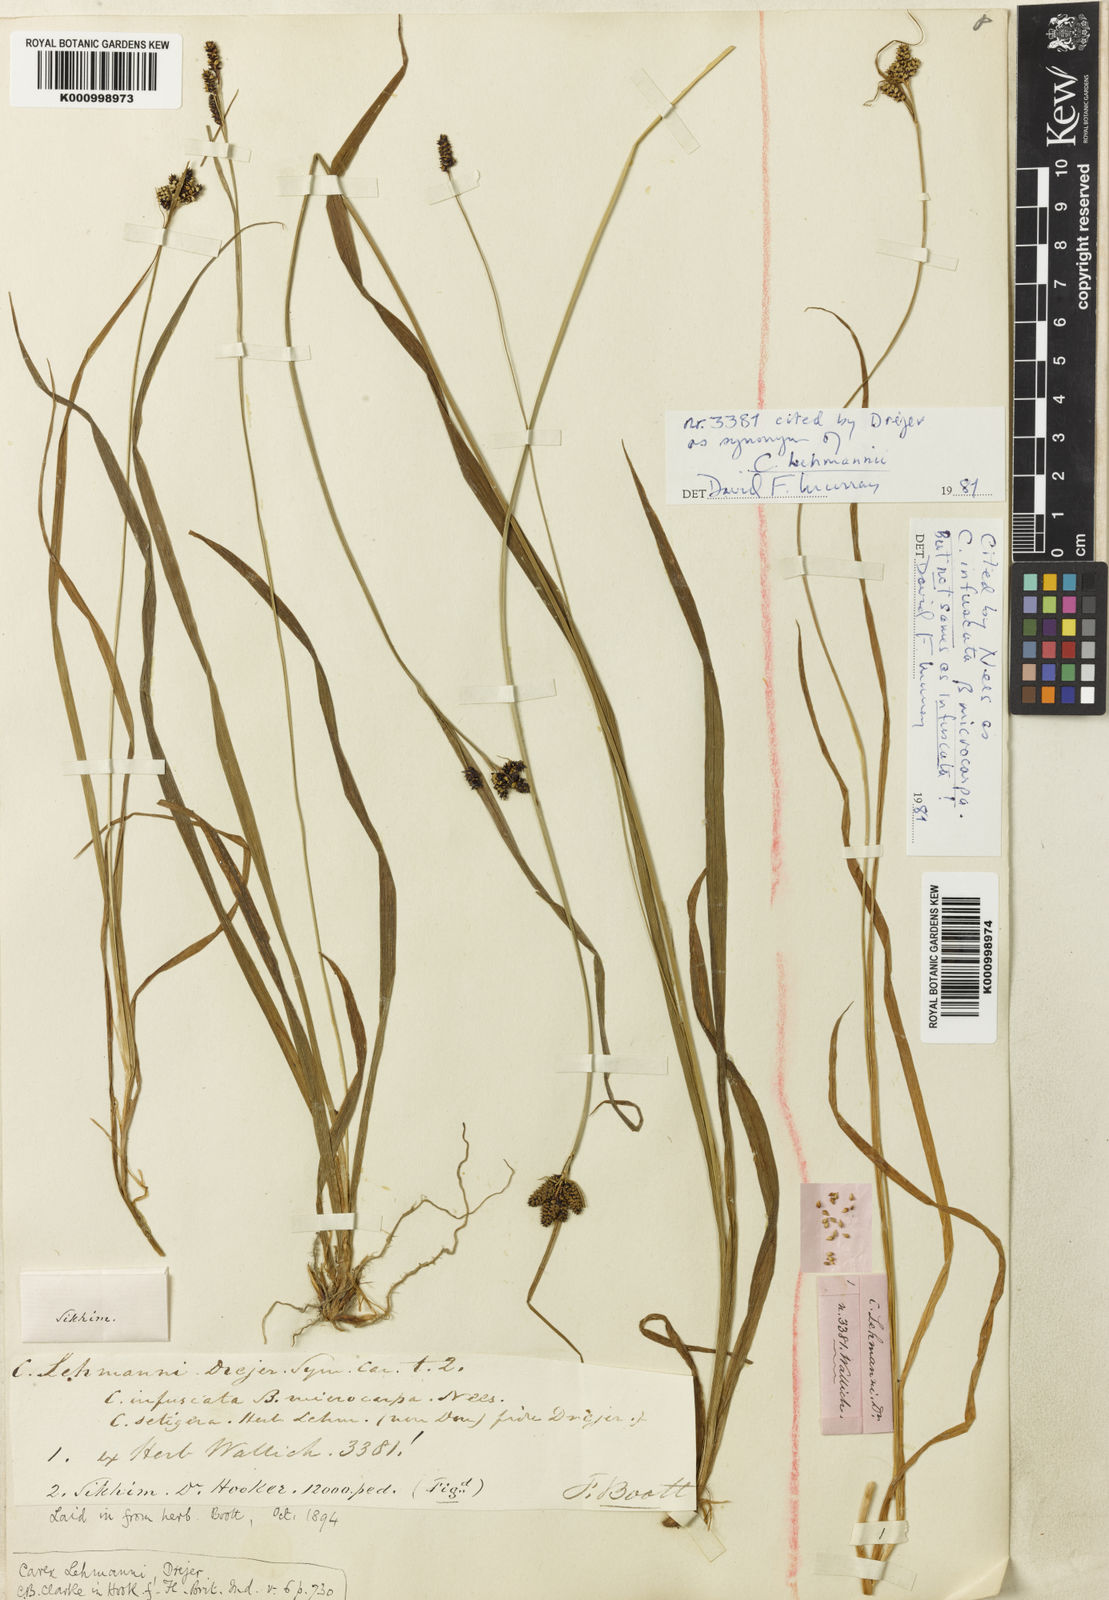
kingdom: Plantae
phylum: Tracheophyta
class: Liliopsida
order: Poales
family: Cyperaceae
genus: Carex
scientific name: Carex lehmannii
